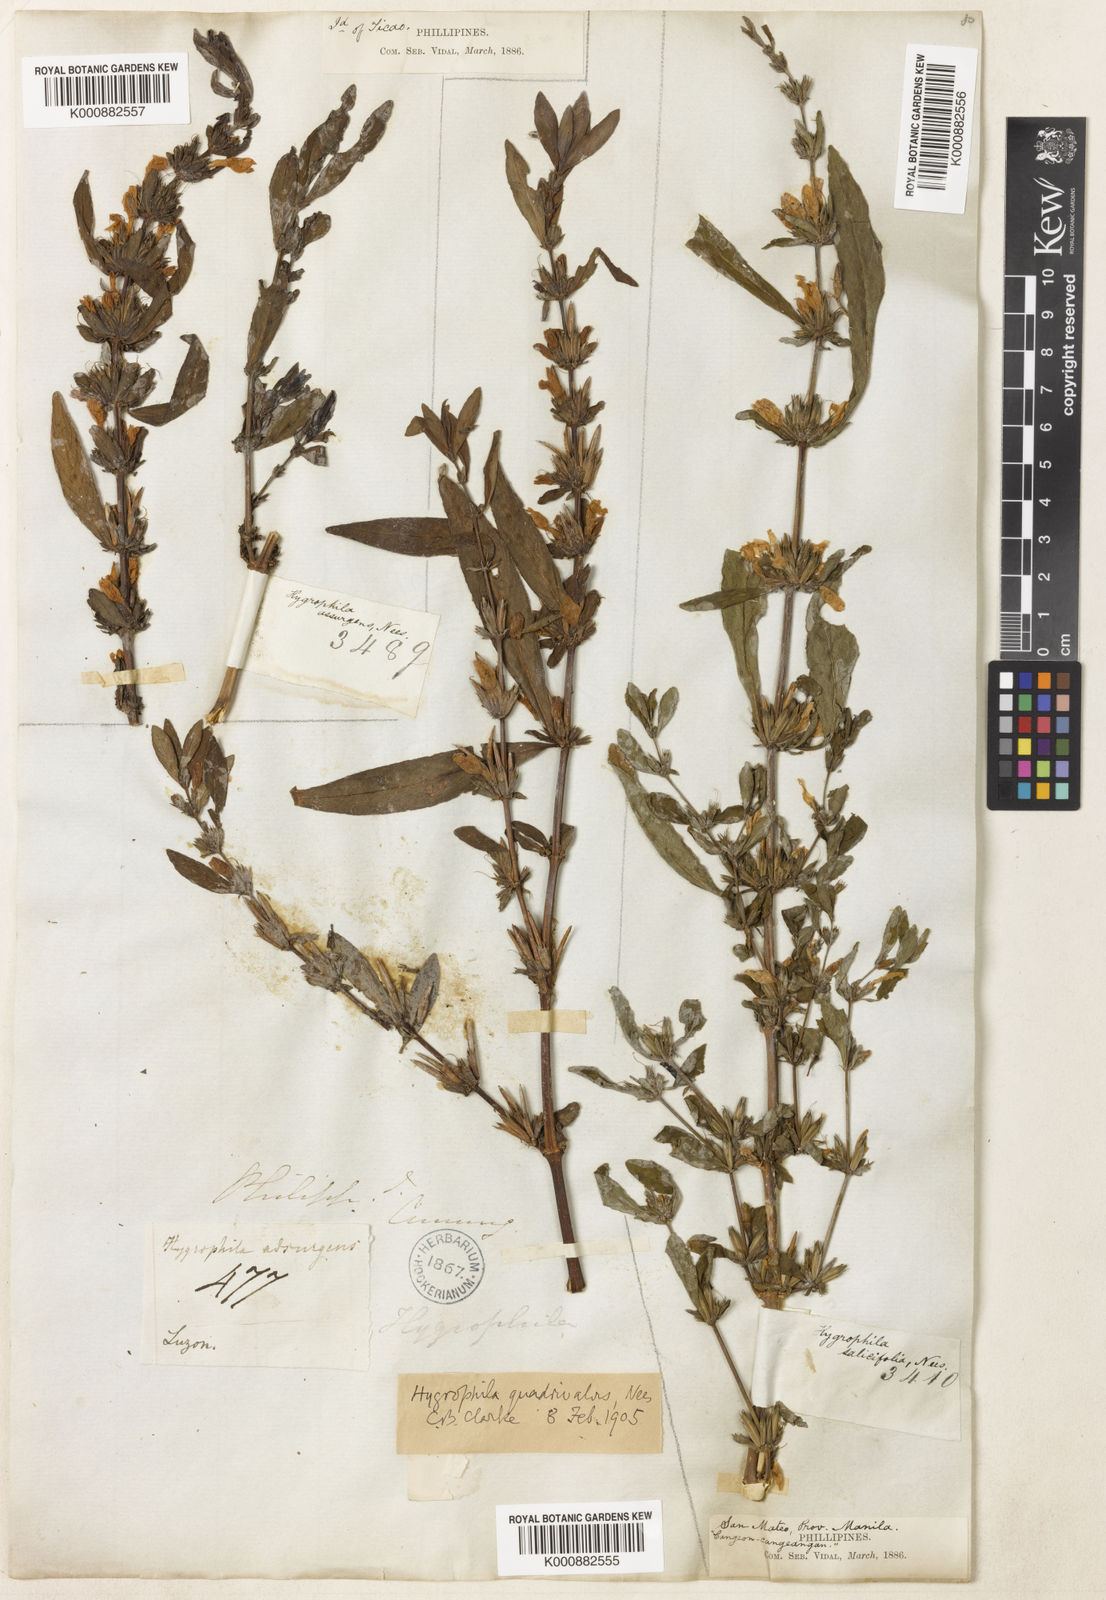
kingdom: Plantae
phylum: Tracheophyta
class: Magnoliopsida
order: Lamiales
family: Acanthaceae
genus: Hygrophila
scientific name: Hygrophila ringens
